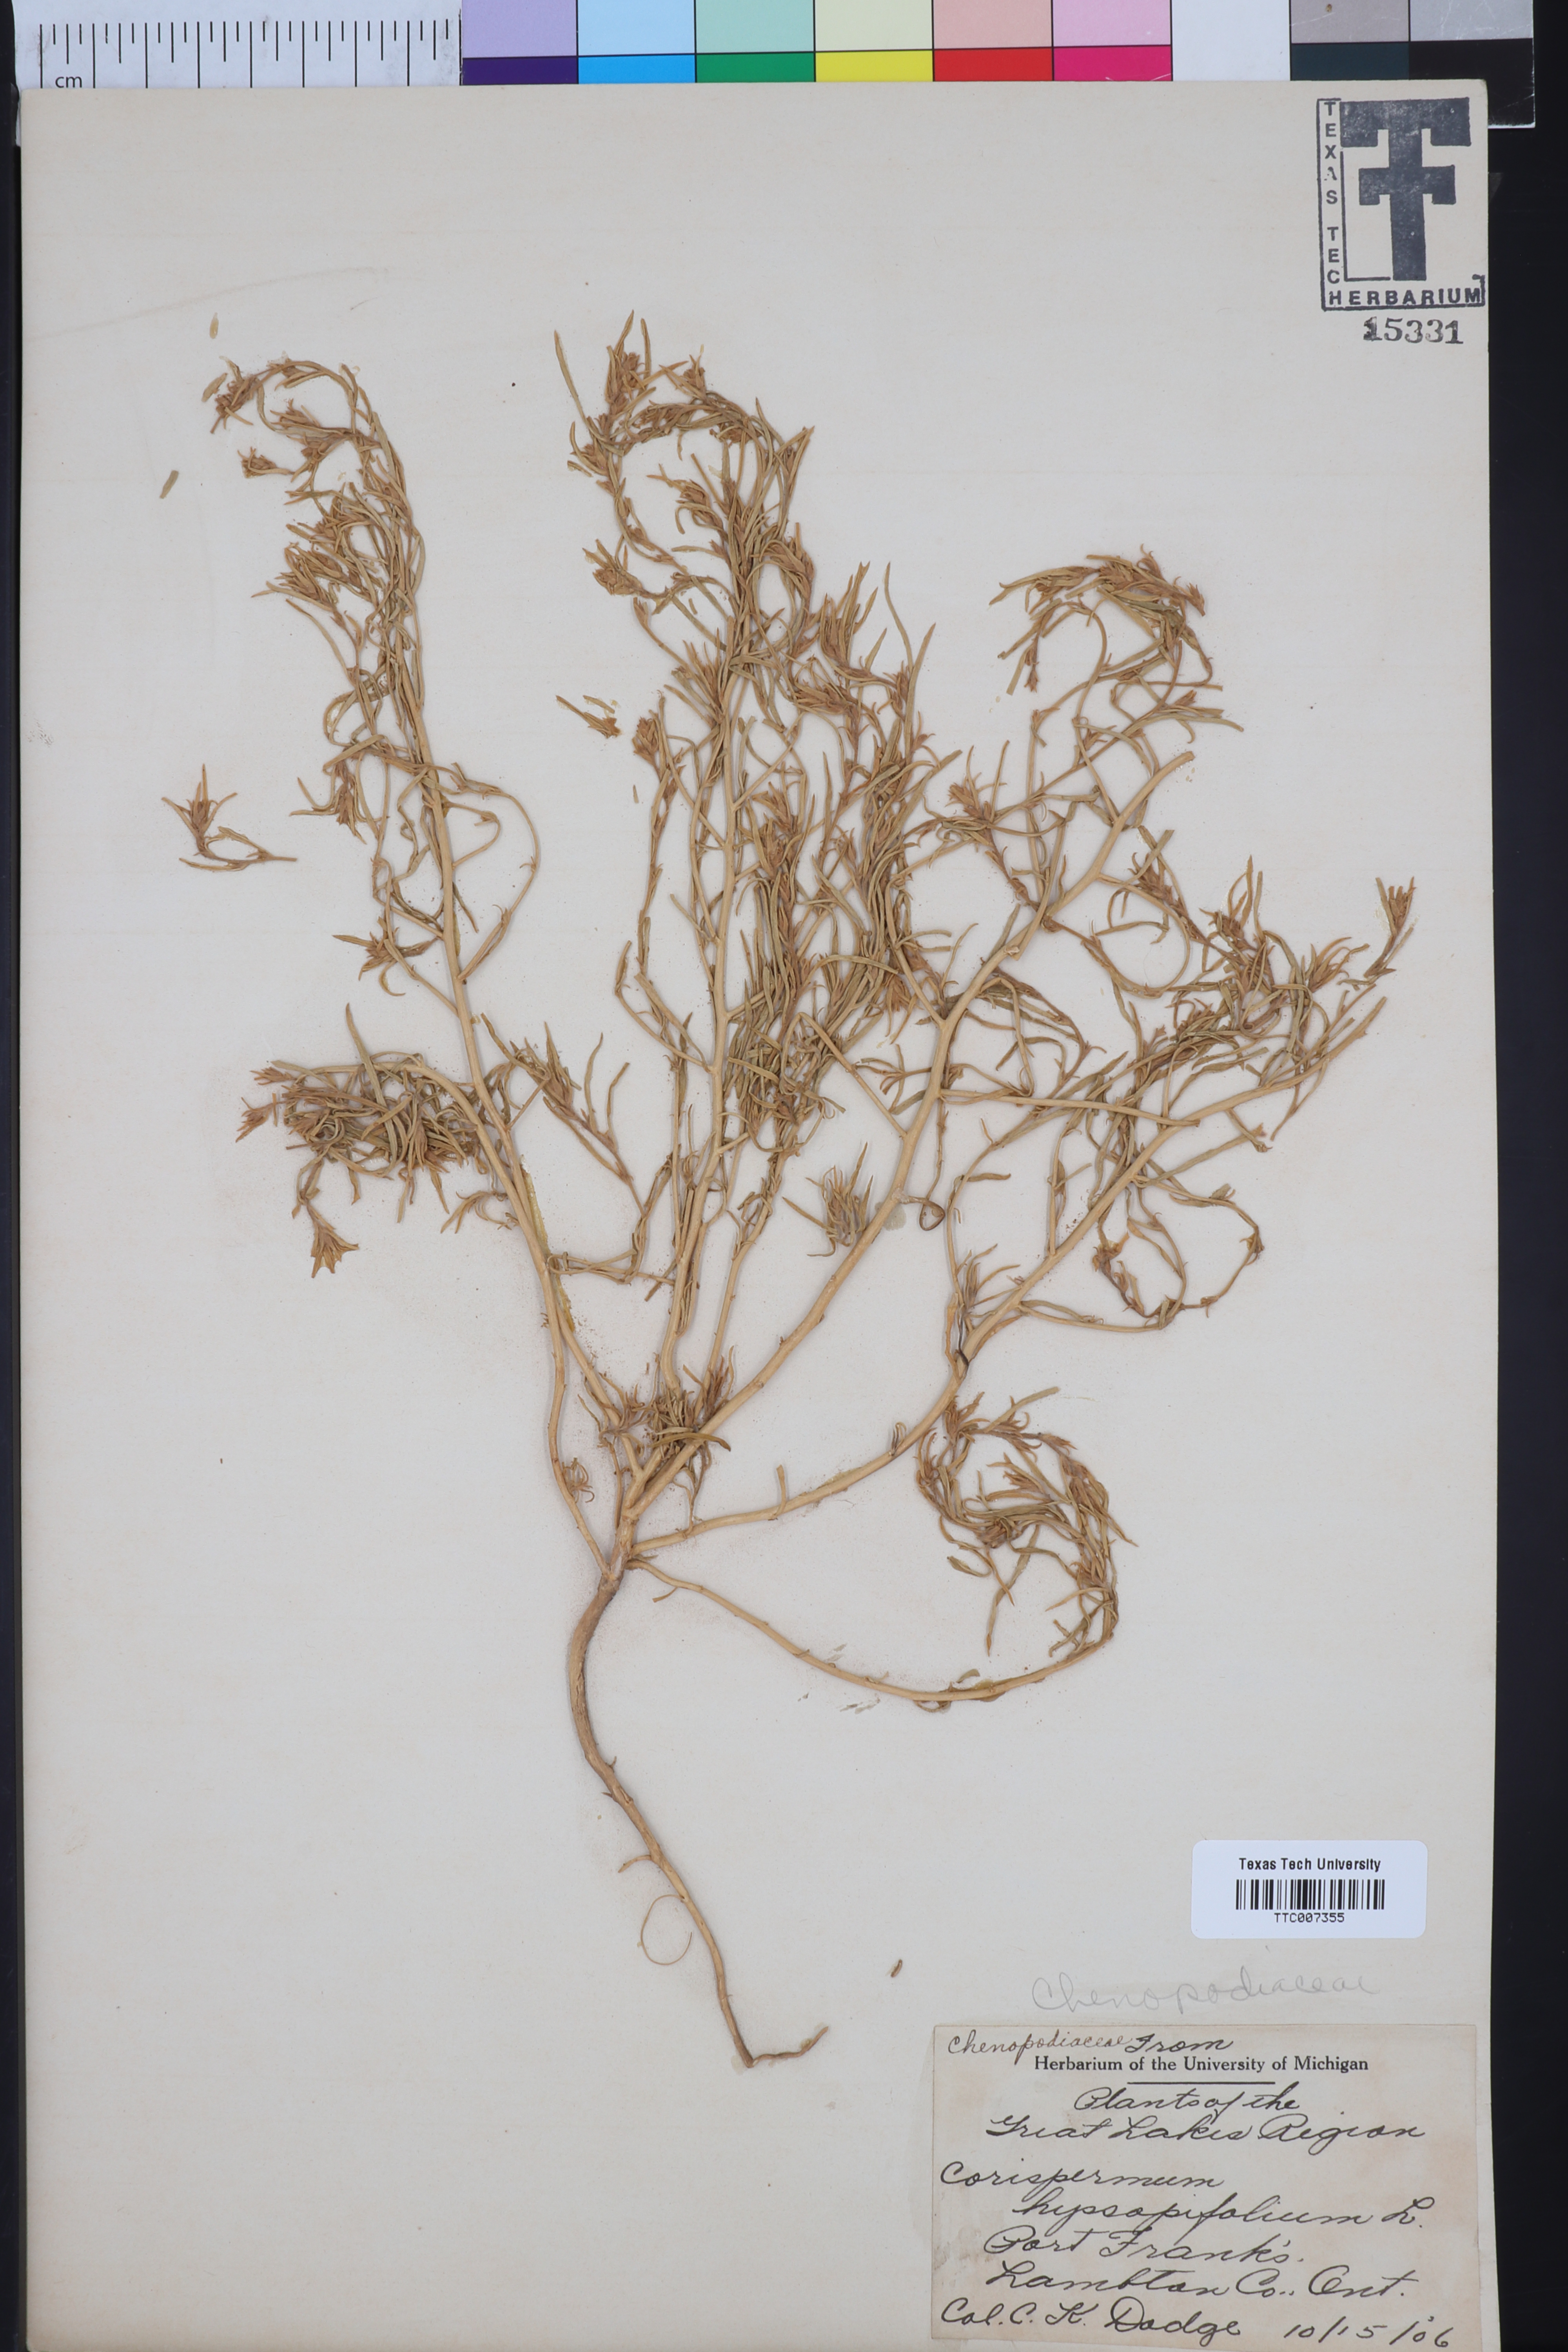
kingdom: Plantae
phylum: Tracheophyta
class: Magnoliopsida
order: Caryophyllales
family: Amaranthaceae
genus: Corispermum
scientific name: Corispermum hyssopifolium
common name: Bugseed
